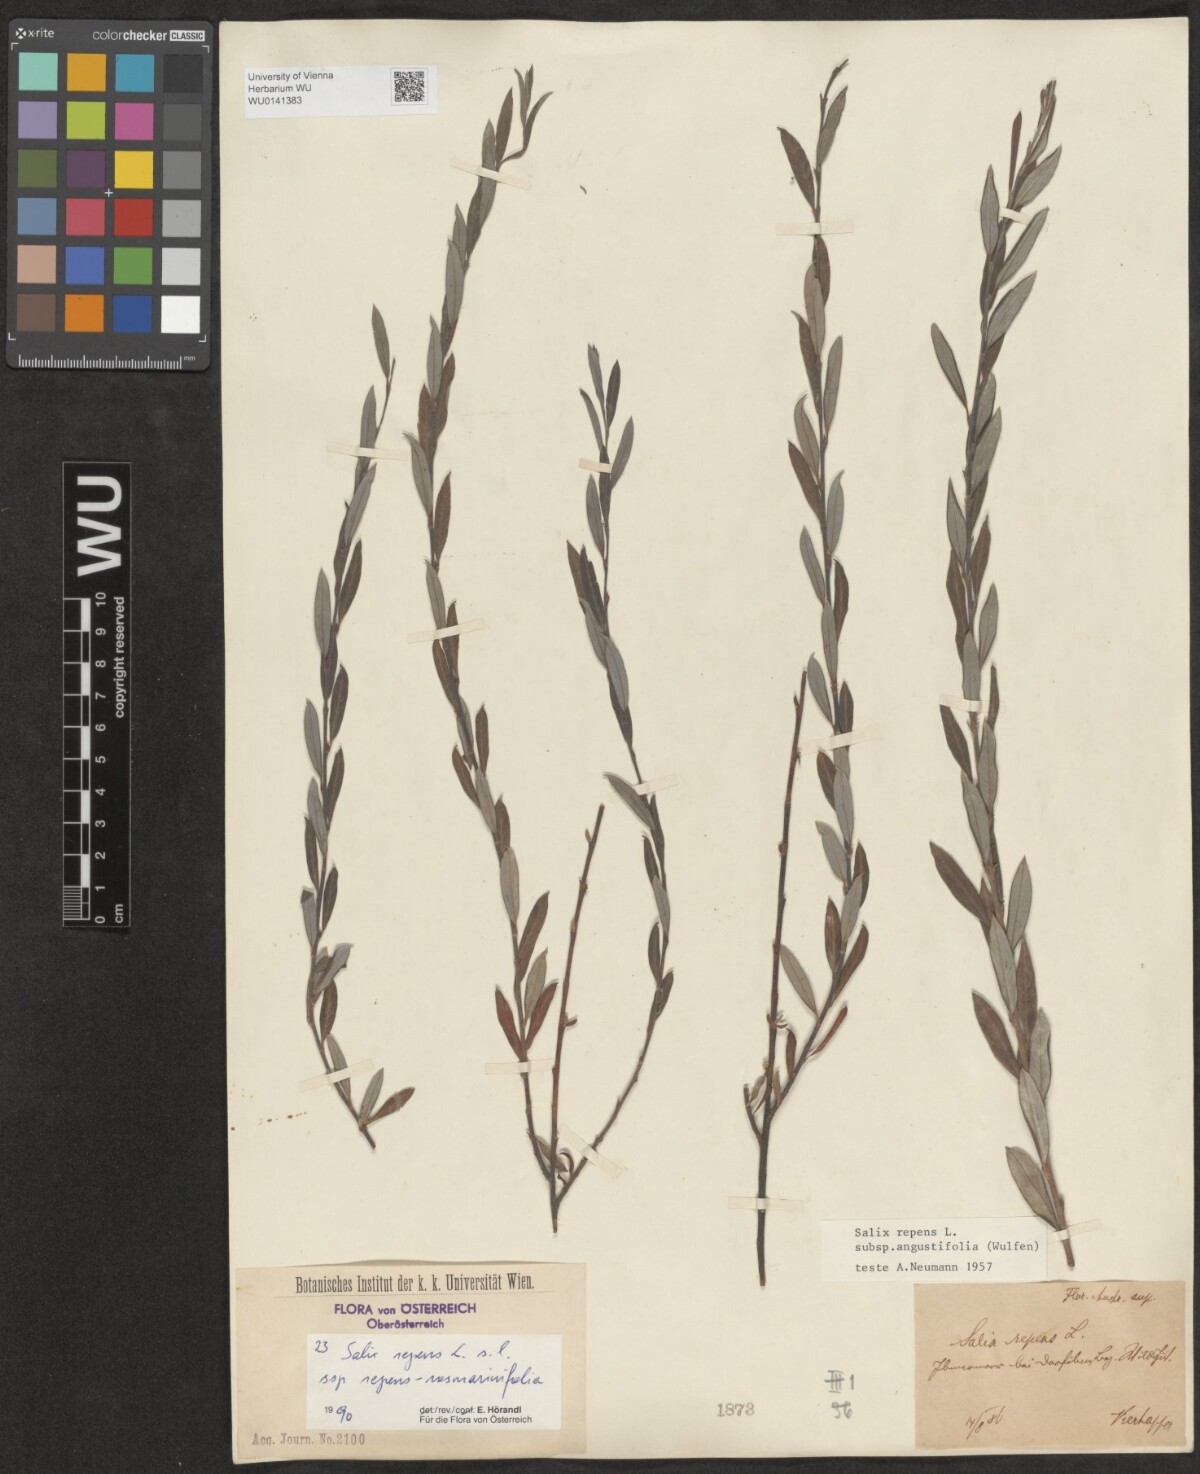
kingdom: Plantae
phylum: Tracheophyta
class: Magnoliopsida
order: Malpighiales
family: Salicaceae
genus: Salix
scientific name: Salix repens
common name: Creeping willow
